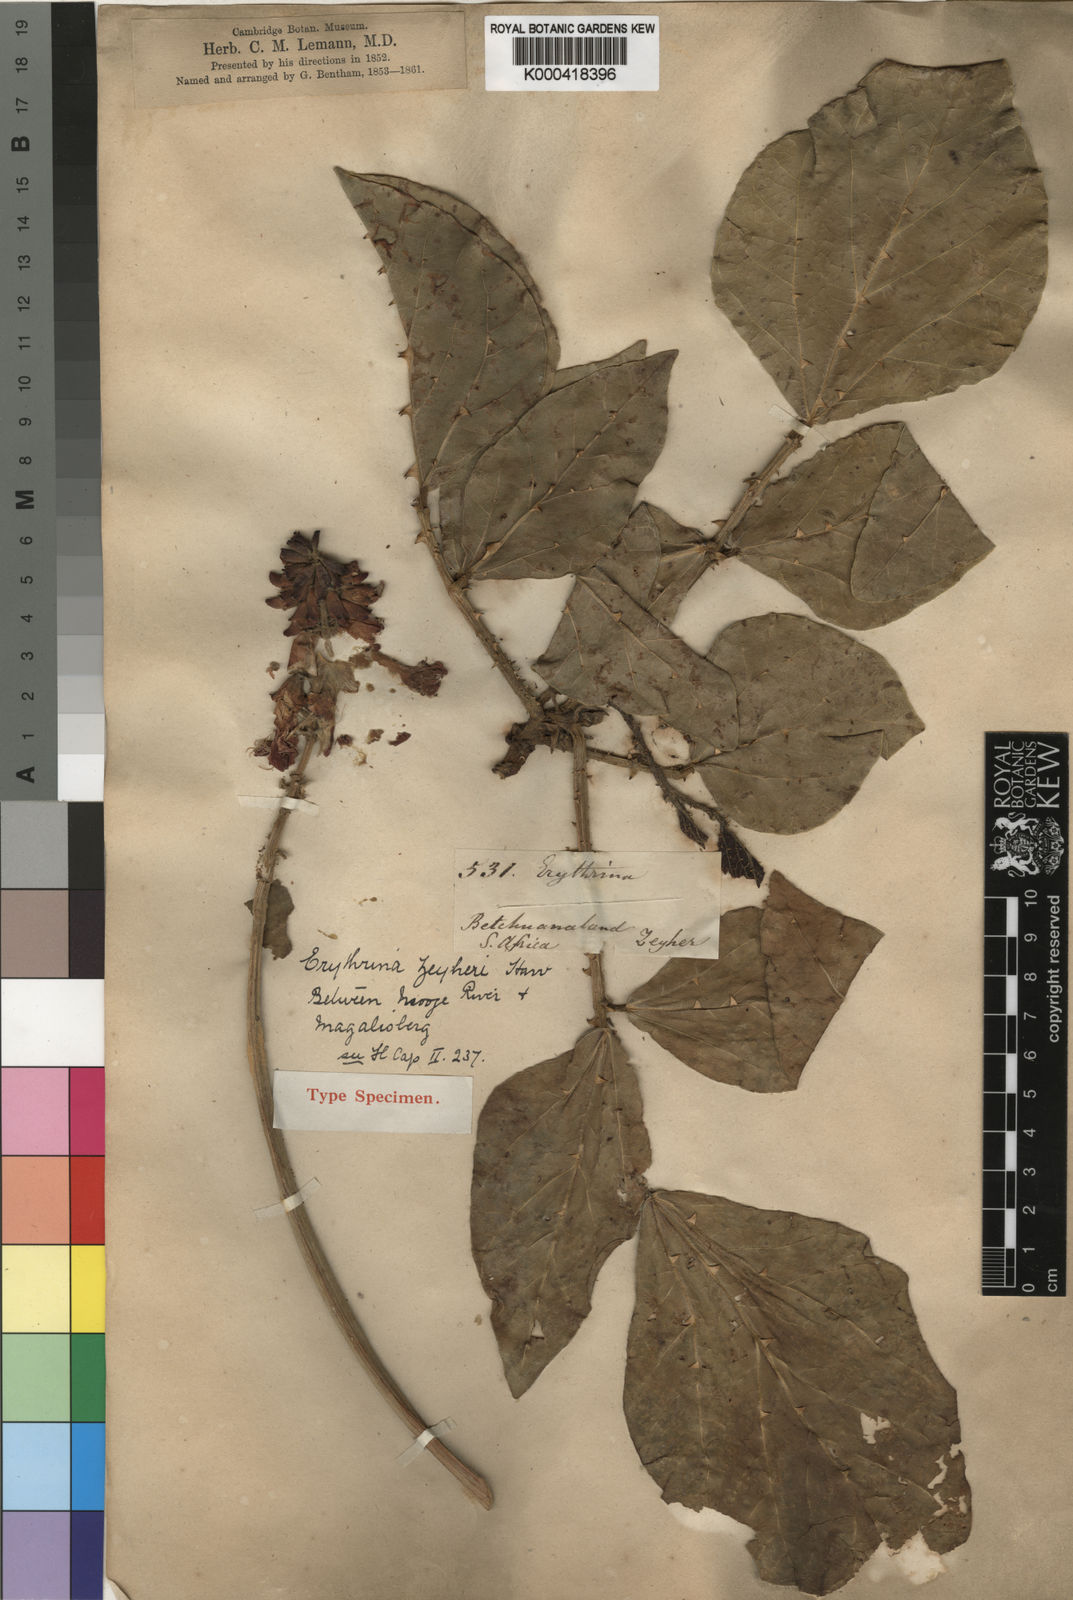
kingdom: Plantae
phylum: Tracheophyta
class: Magnoliopsida
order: Fabales
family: Fabaceae
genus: Erythrina
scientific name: Erythrina zeyheri
